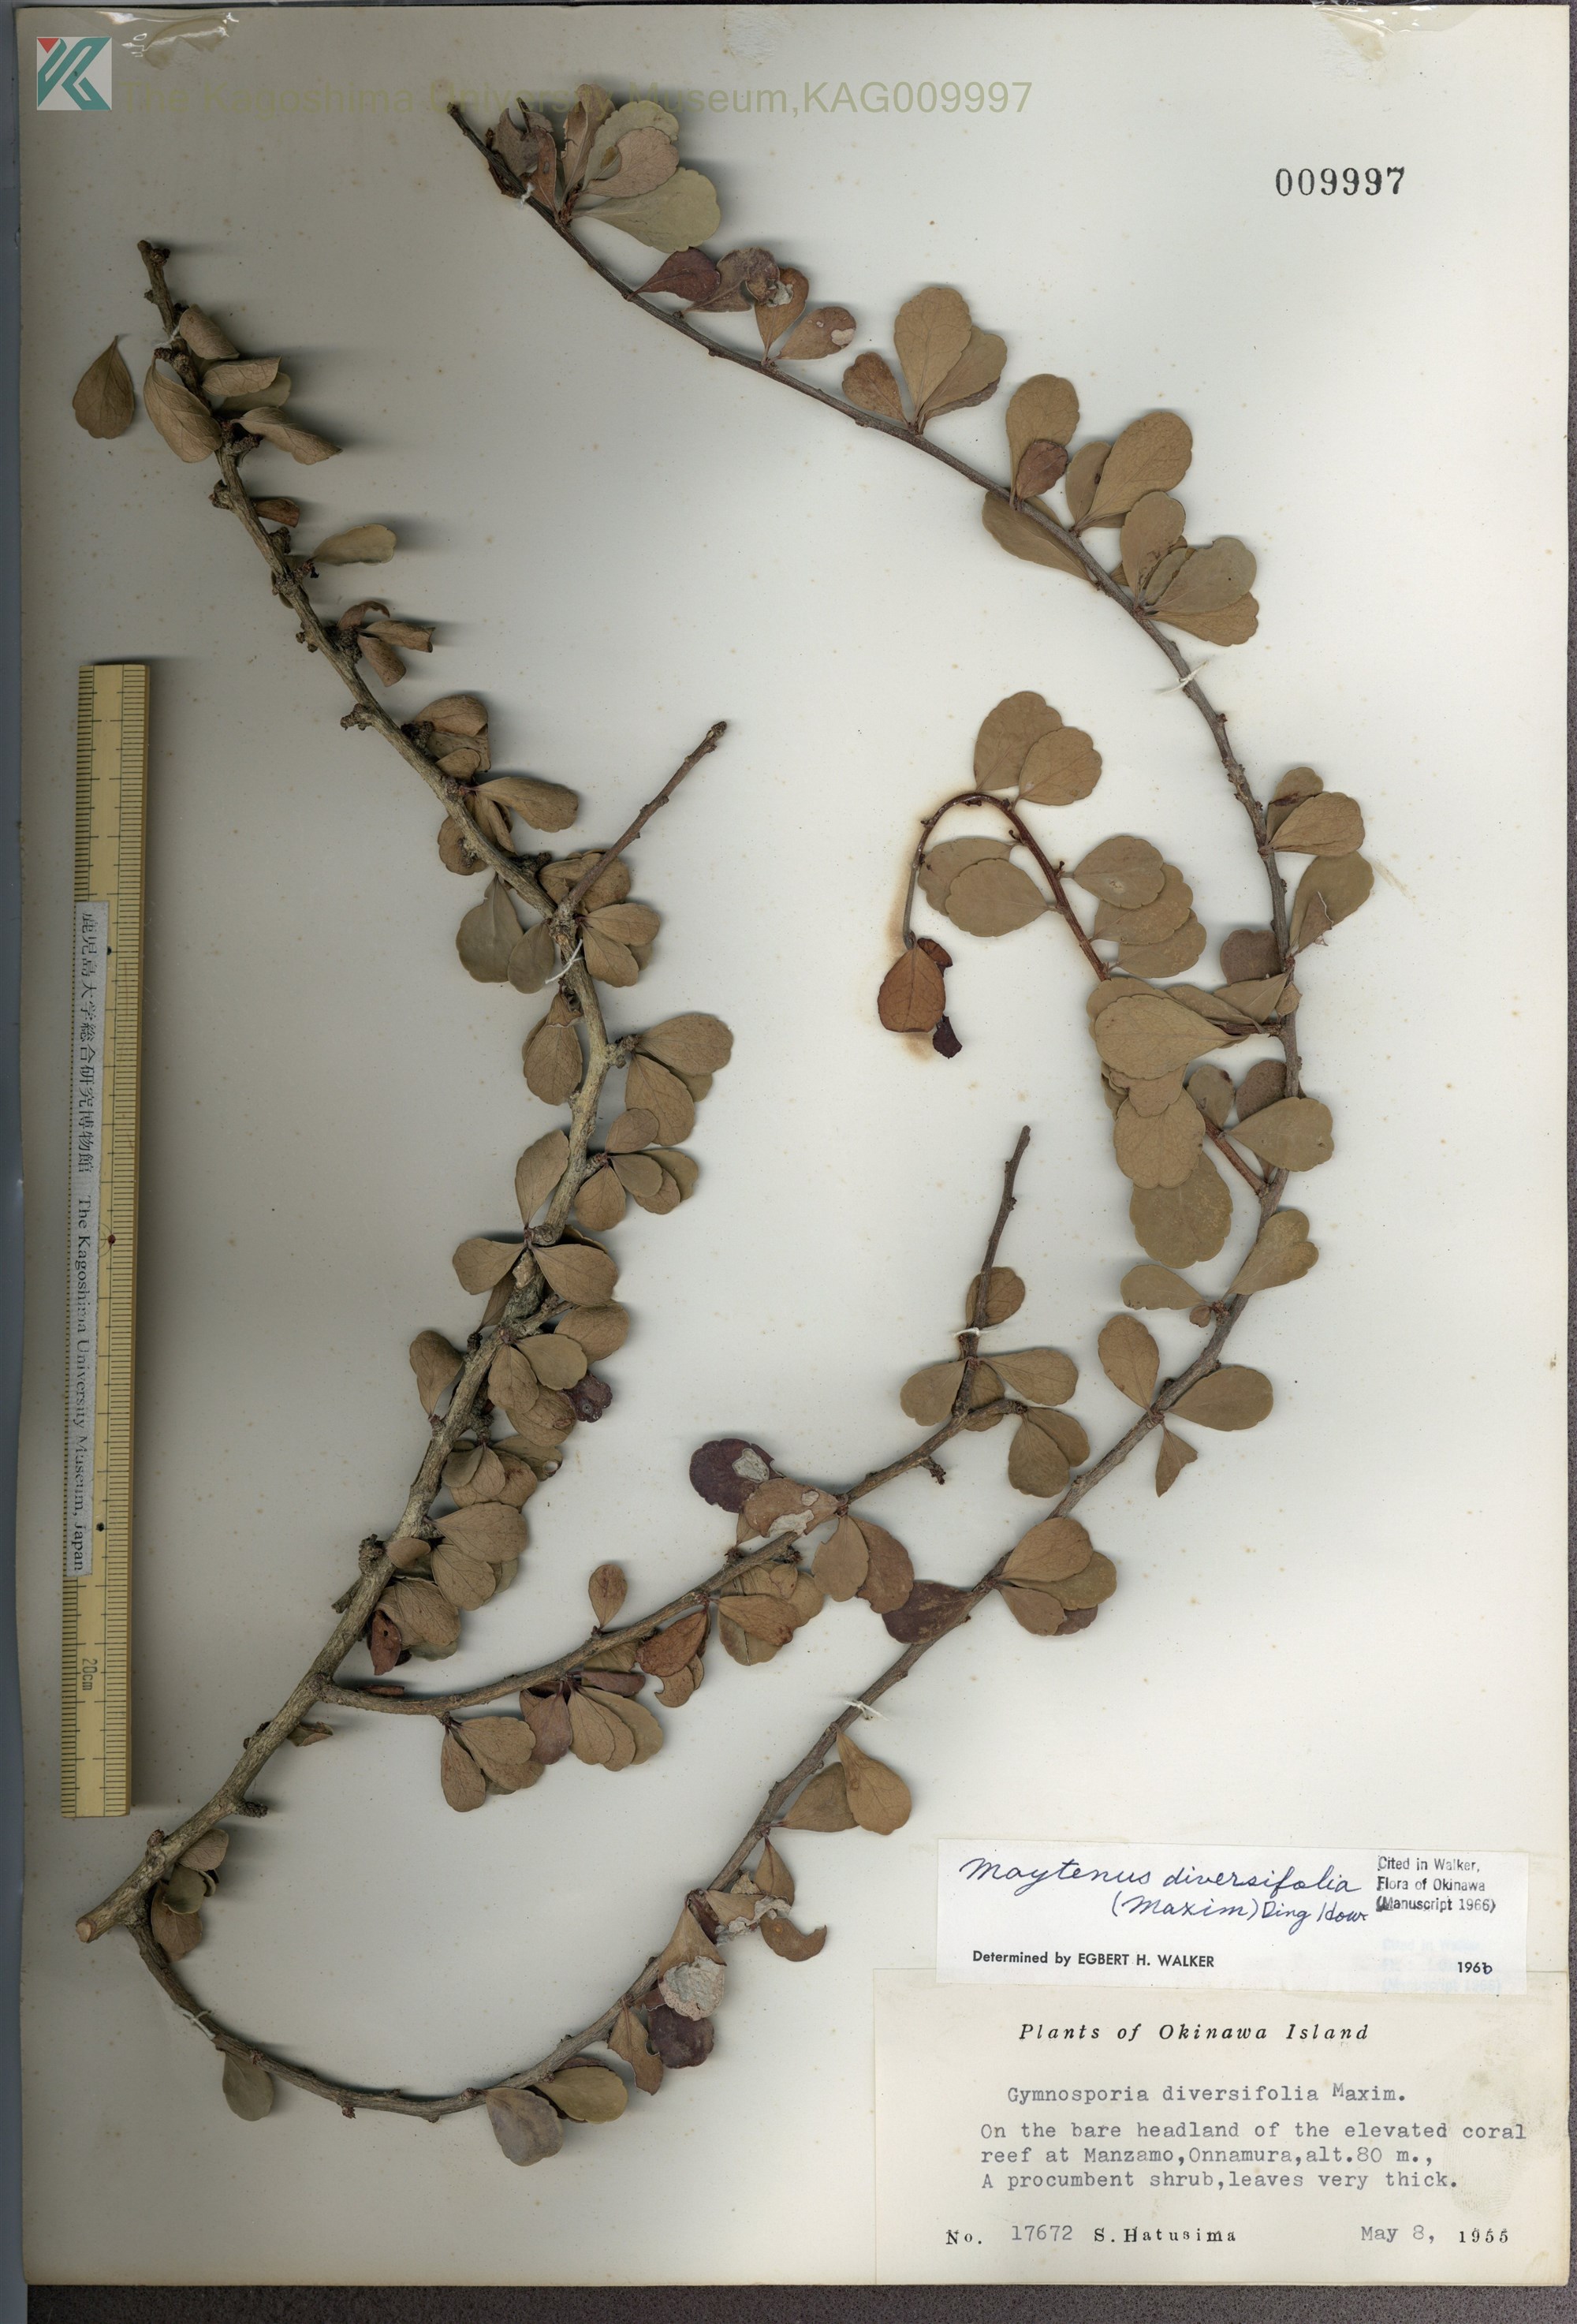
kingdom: Plantae
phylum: Tracheophyta
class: Magnoliopsida
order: Celastrales
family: Celastraceae
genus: Gymnosporia
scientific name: Gymnosporia diversifolia
